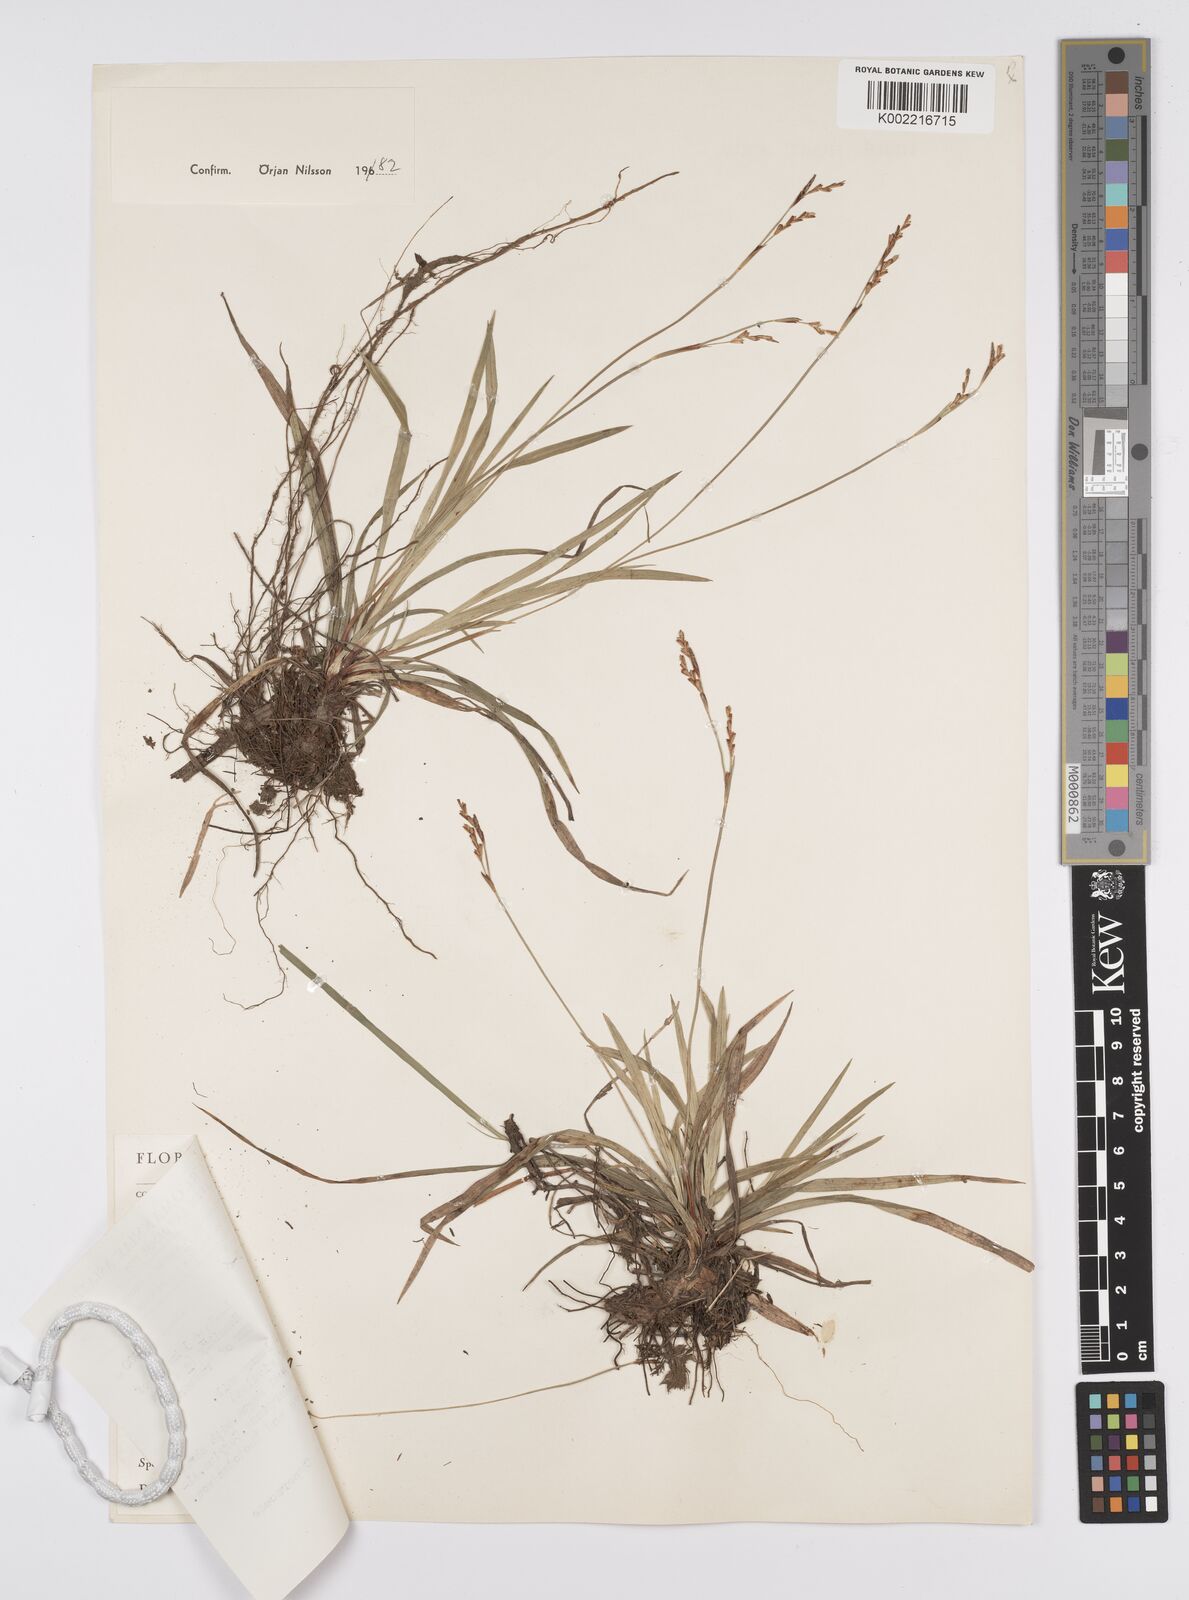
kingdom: Plantae
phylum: Tracheophyta
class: Liliopsida
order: Poales
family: Cyperaceae
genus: Carex
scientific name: Carex digitata
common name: Fingered sedge
